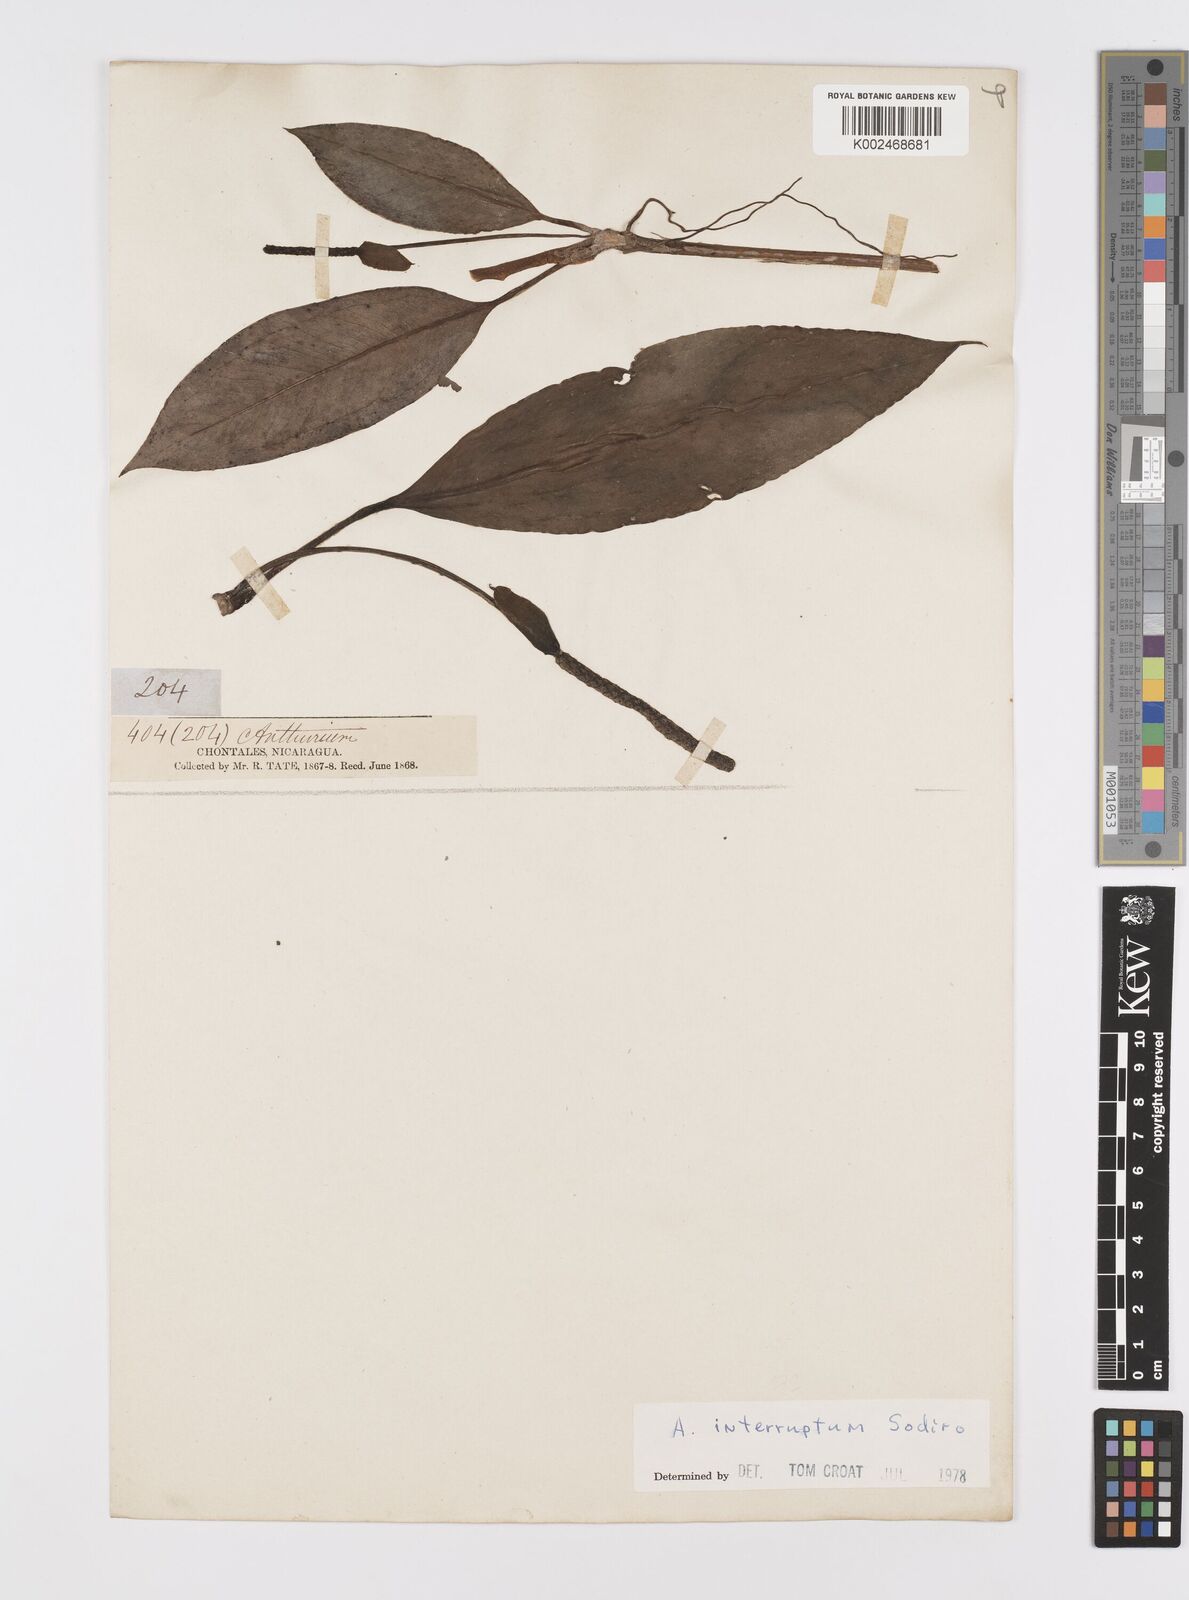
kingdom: Plantae
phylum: Tracheophyta
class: Liliopsida
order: Alismatales
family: Araceae
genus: Anthurium
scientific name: Anthurium interruptum
